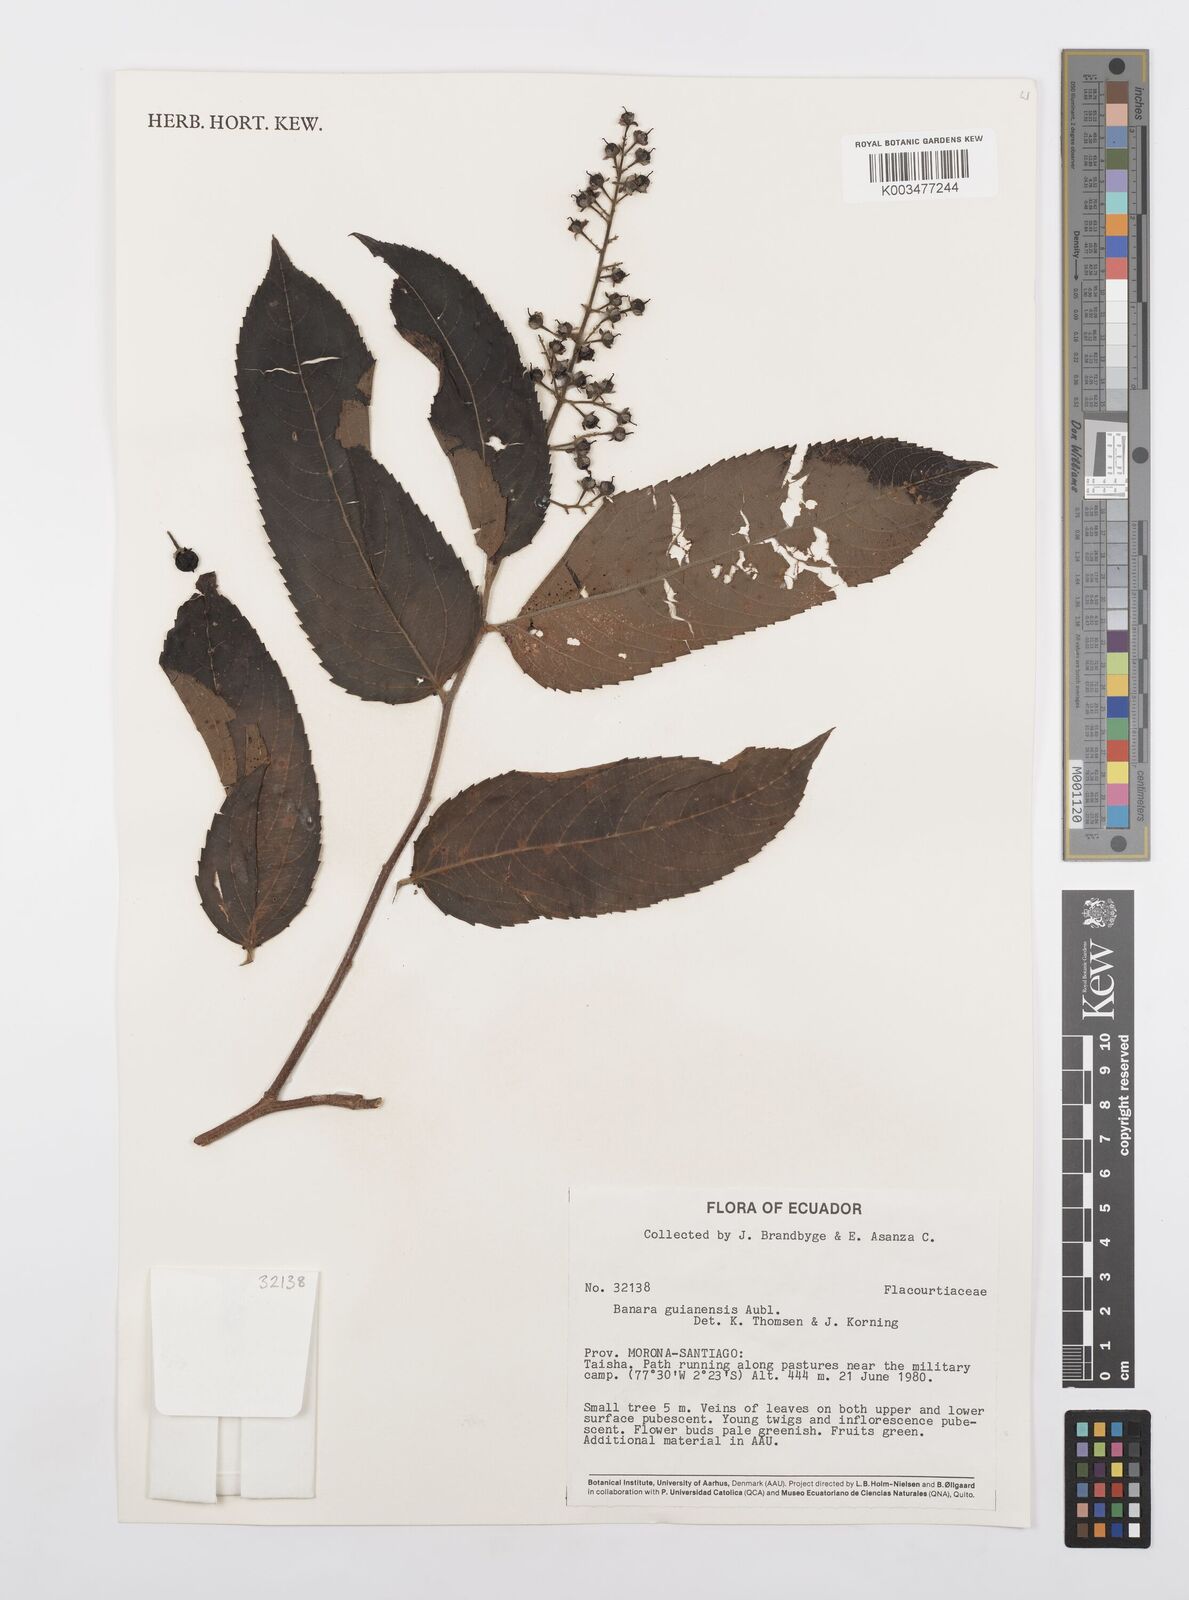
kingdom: Plantae
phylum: Tracheophyta
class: Magnoliopsida
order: Malpighiales
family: Salicaceae
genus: Banara
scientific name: Banara guianensis
